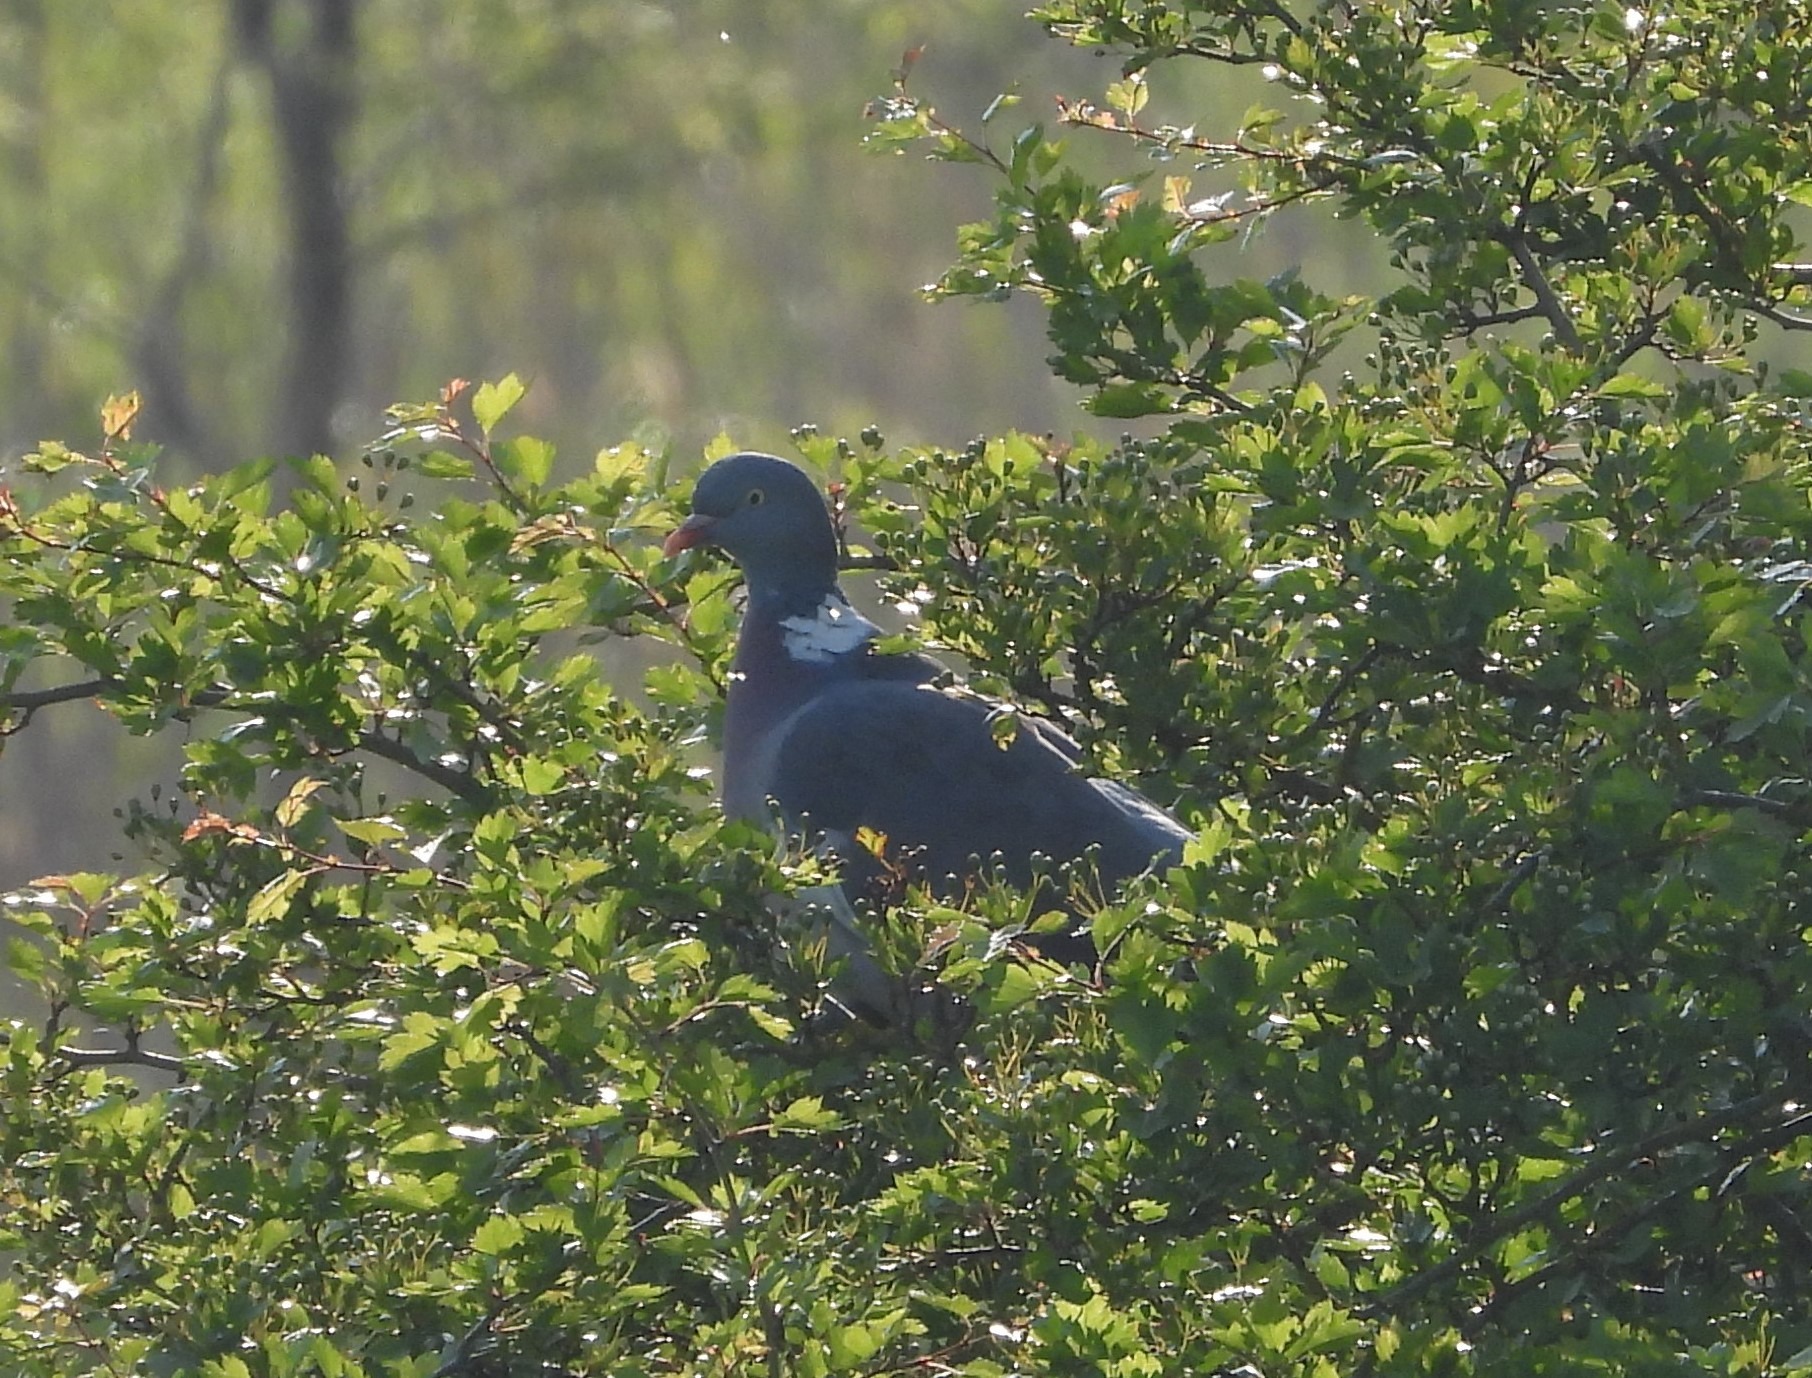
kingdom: Animalia
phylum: Chordata
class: Aves
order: Columbiformes
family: Columbidae
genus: Columba
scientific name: Columba palumbus
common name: Ringdue
